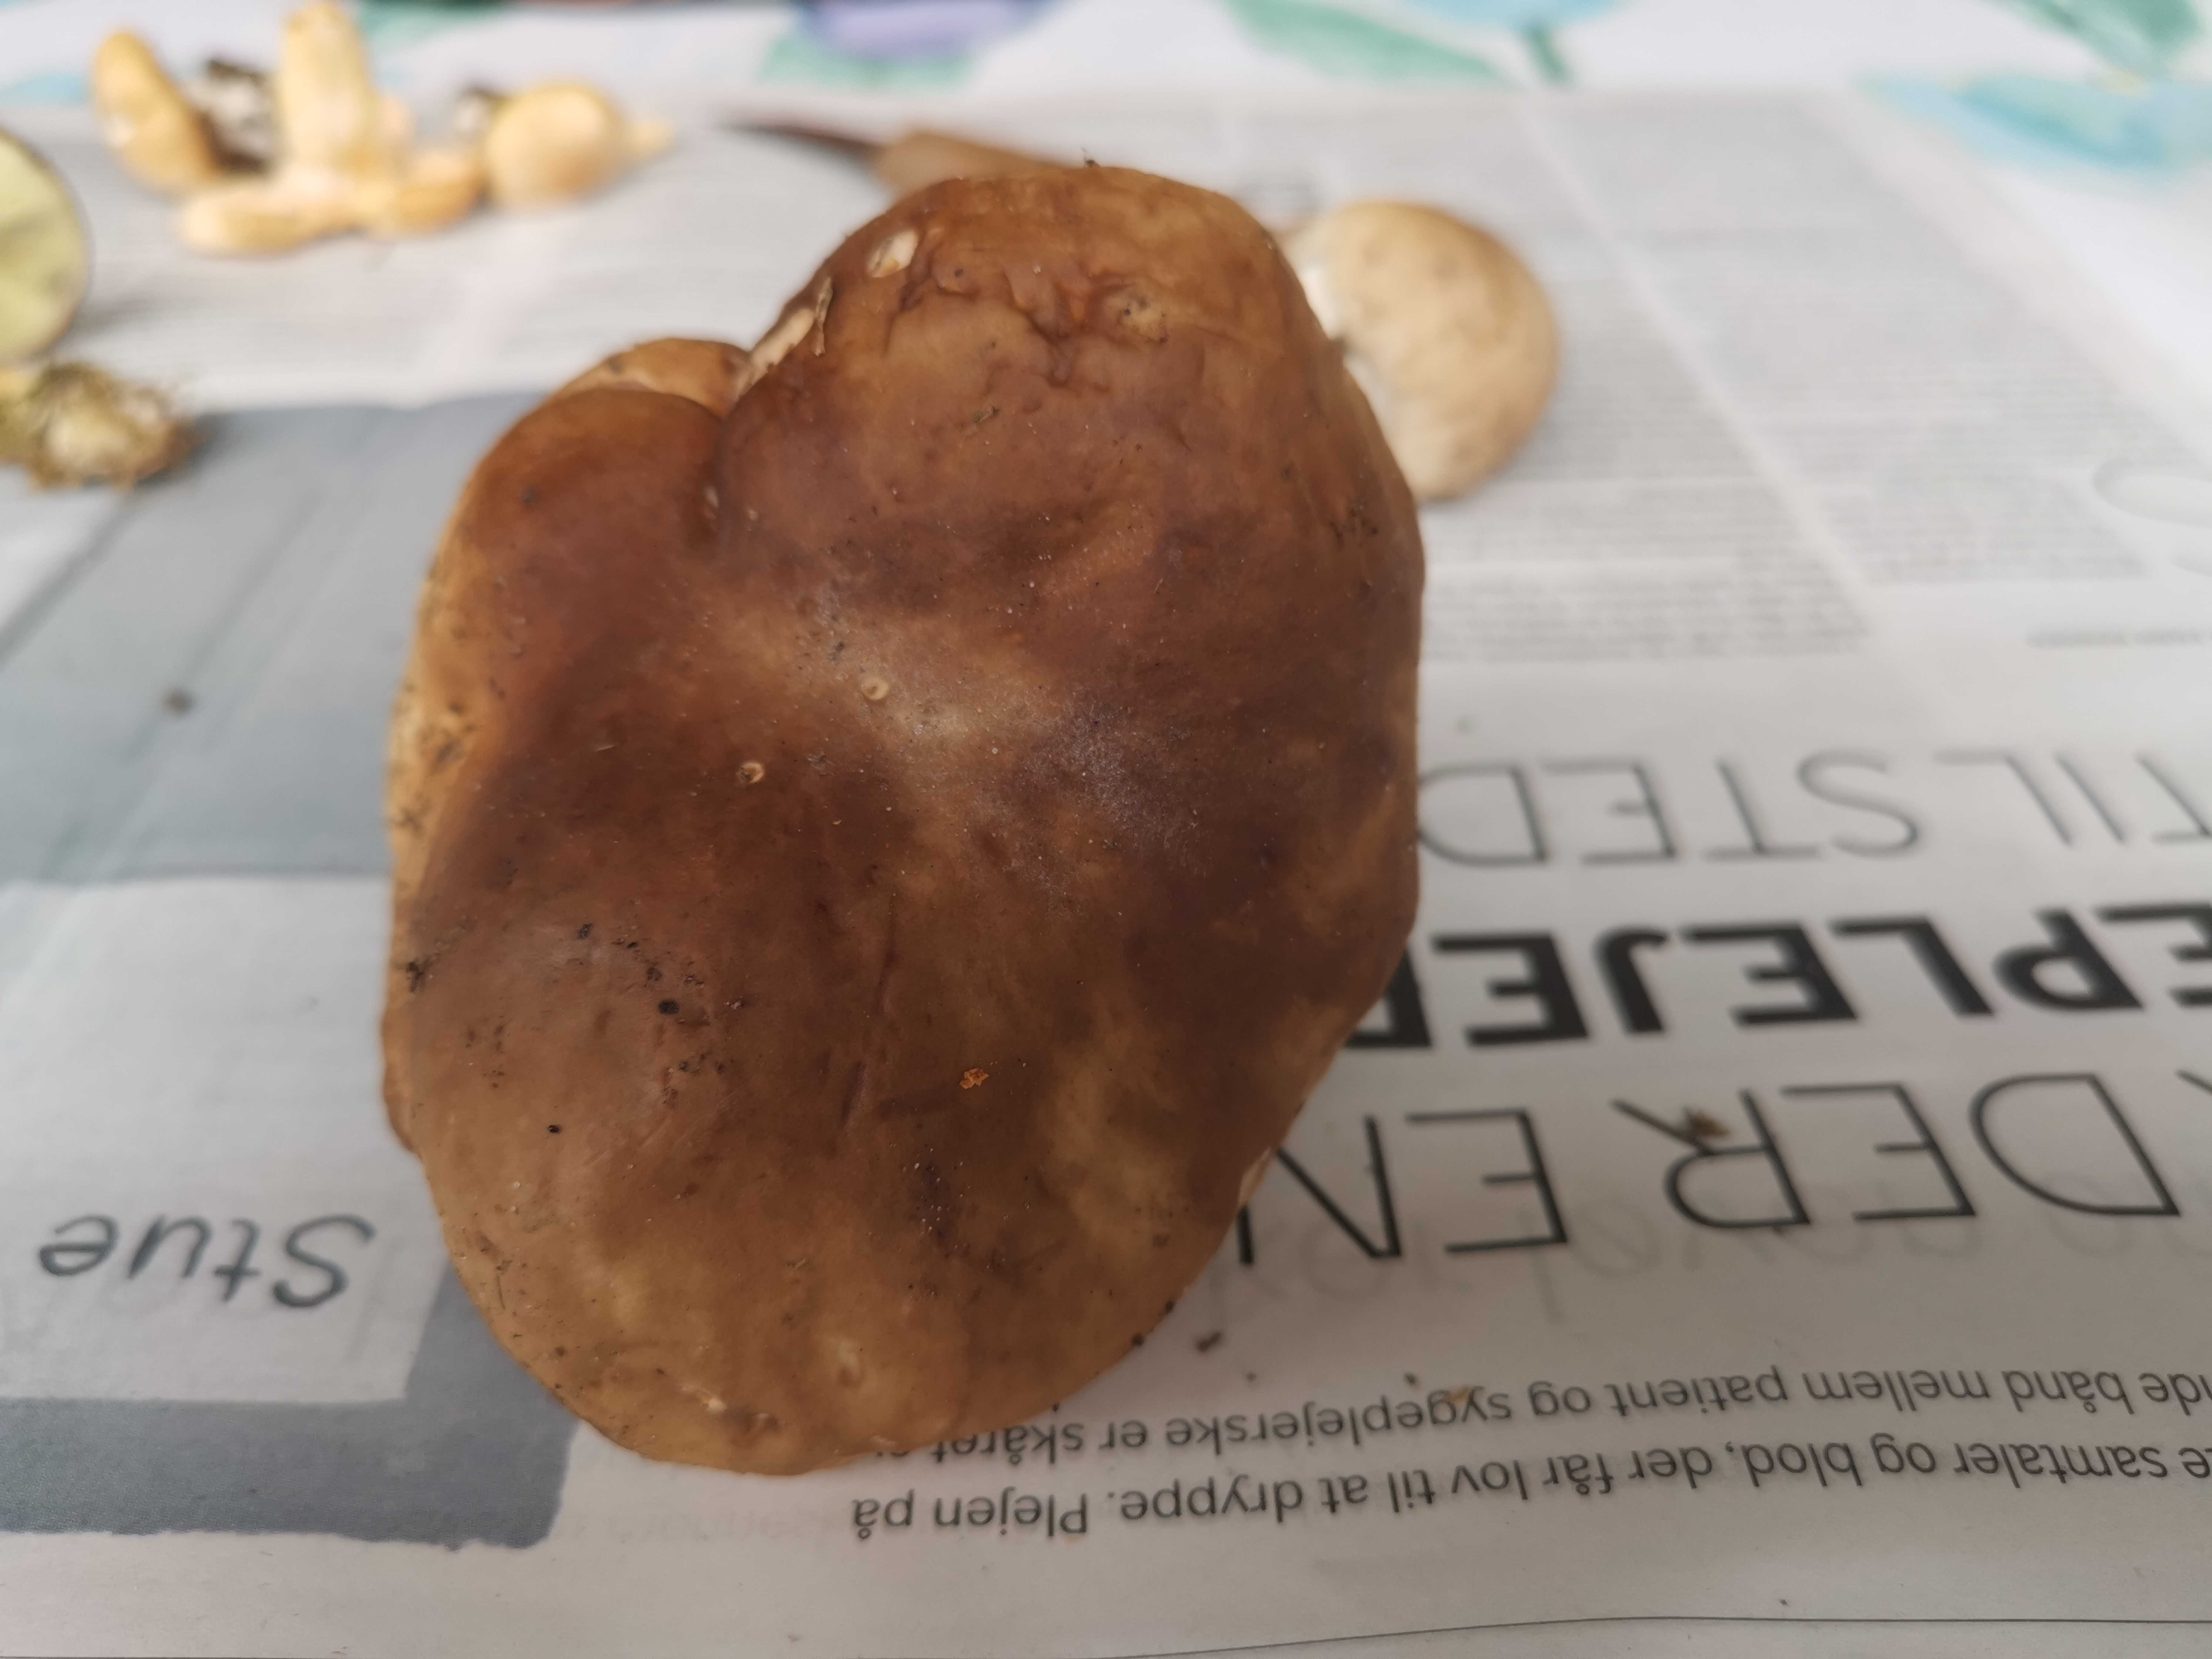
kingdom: Fungi
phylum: Basidiomycota
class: Agaricomycetes
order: Boletales
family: Boletaceae
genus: Boletus
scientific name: Boletus edulis
